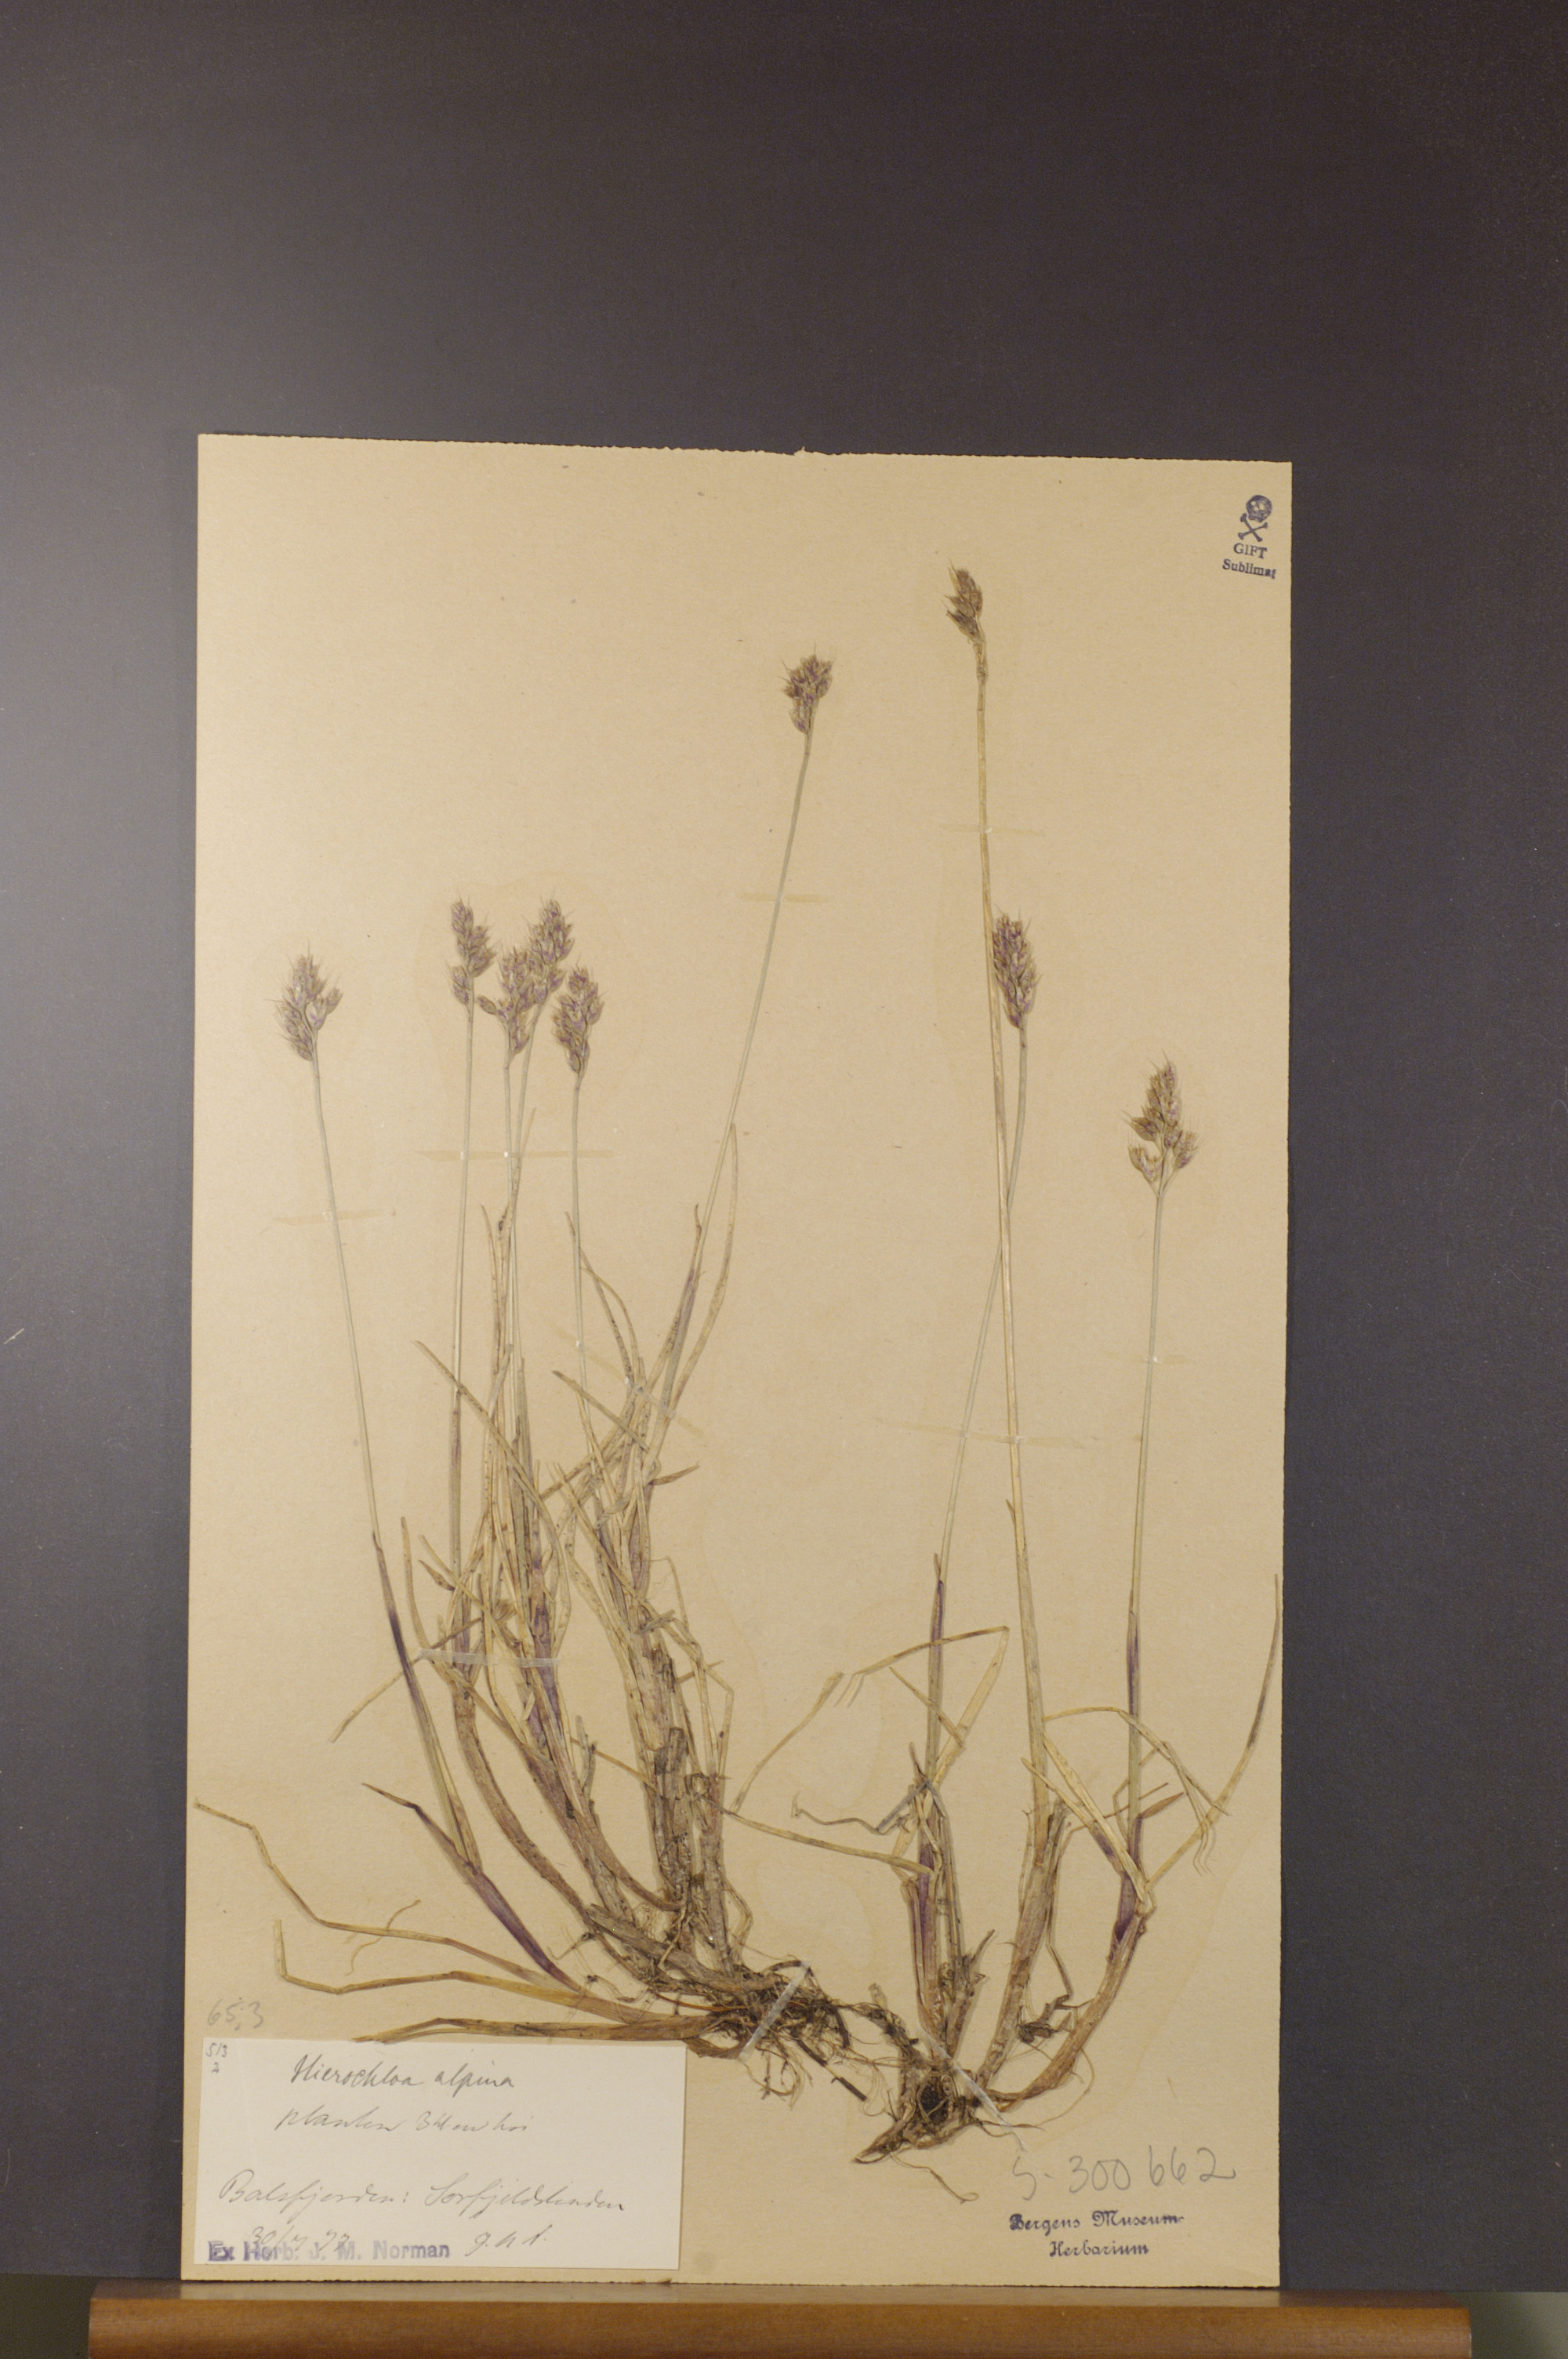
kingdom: Plantae
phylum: Tracheophyta
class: Liliopsida
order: Poales
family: Poaceae
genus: Anthoxanthum
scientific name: Anthoxanthum monticola
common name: Alpine sweetgrass
